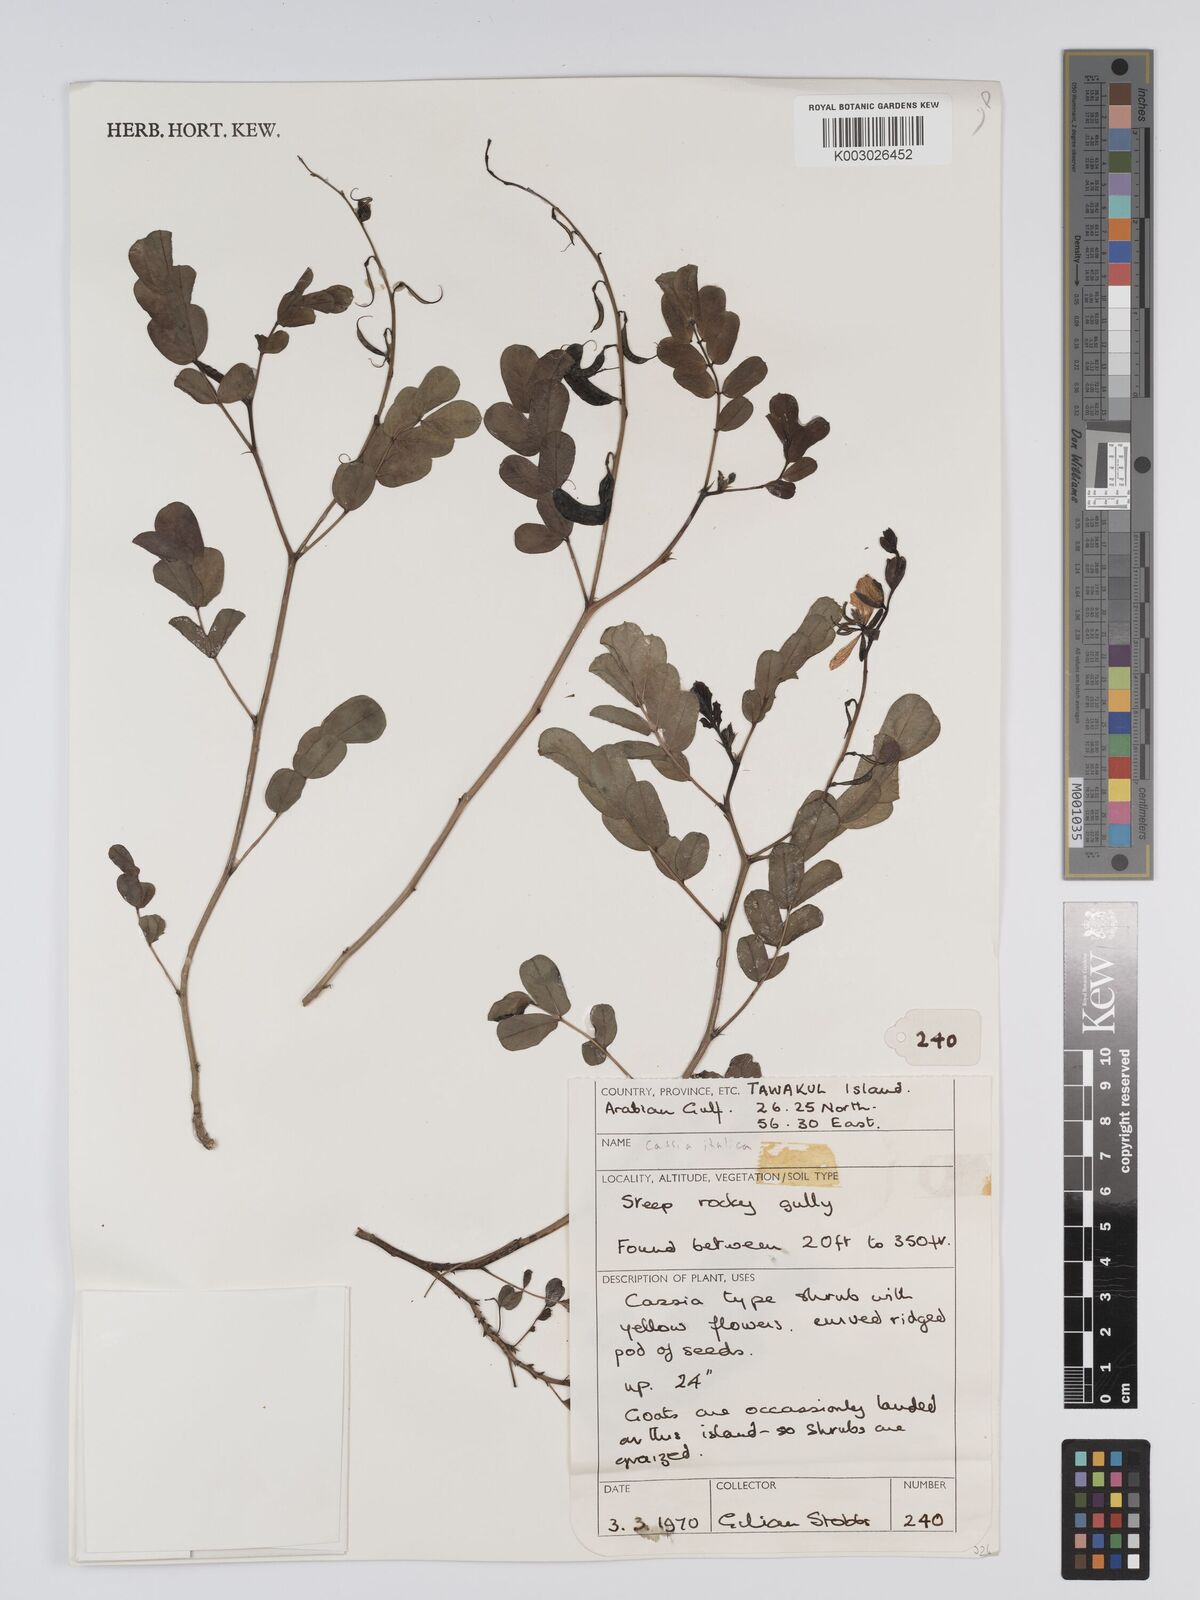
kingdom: Plantae
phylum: Tracheophyta
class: Magnoliopsida
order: Fabales
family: Fabaceae
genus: Cassia
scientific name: Cassia
